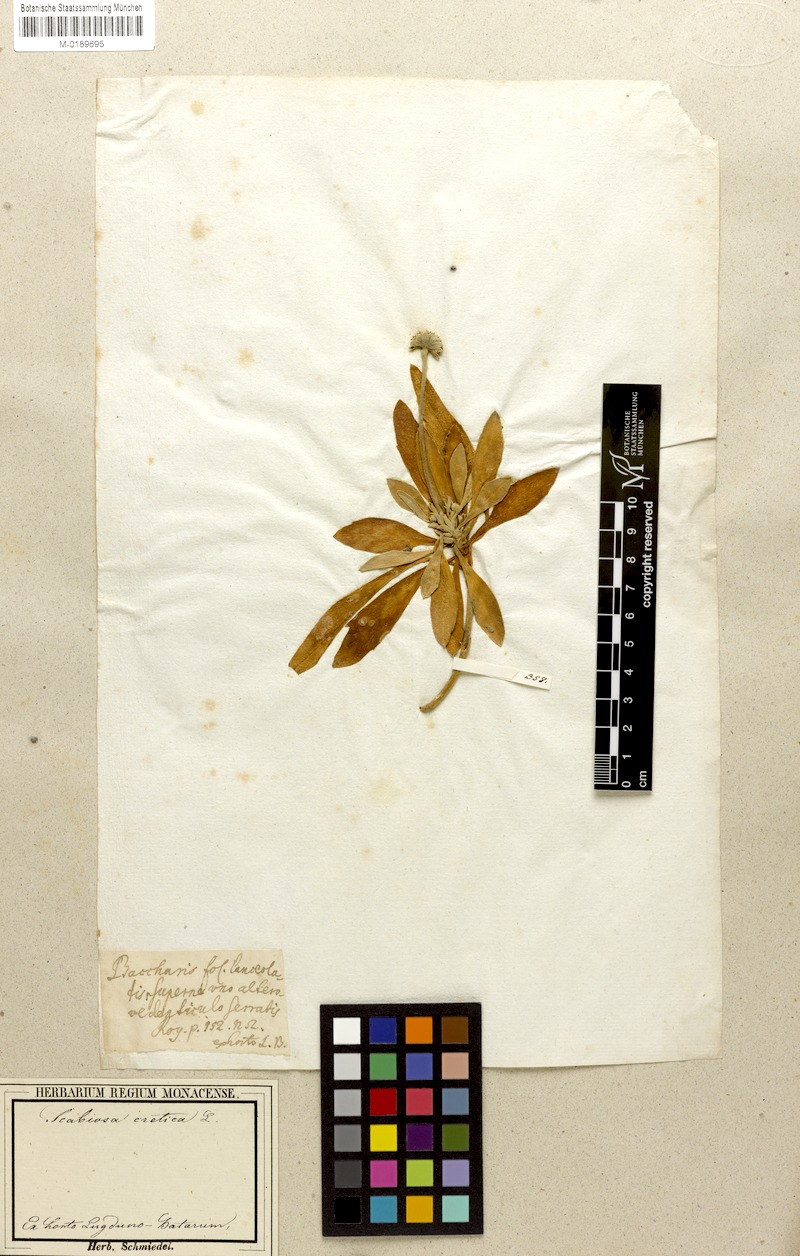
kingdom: Plantae
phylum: Tracheophyta
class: Magnoliopsida
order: Dipsacales
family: Caprifoliaceae
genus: Lomelosia
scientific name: Lomelosia cretica
